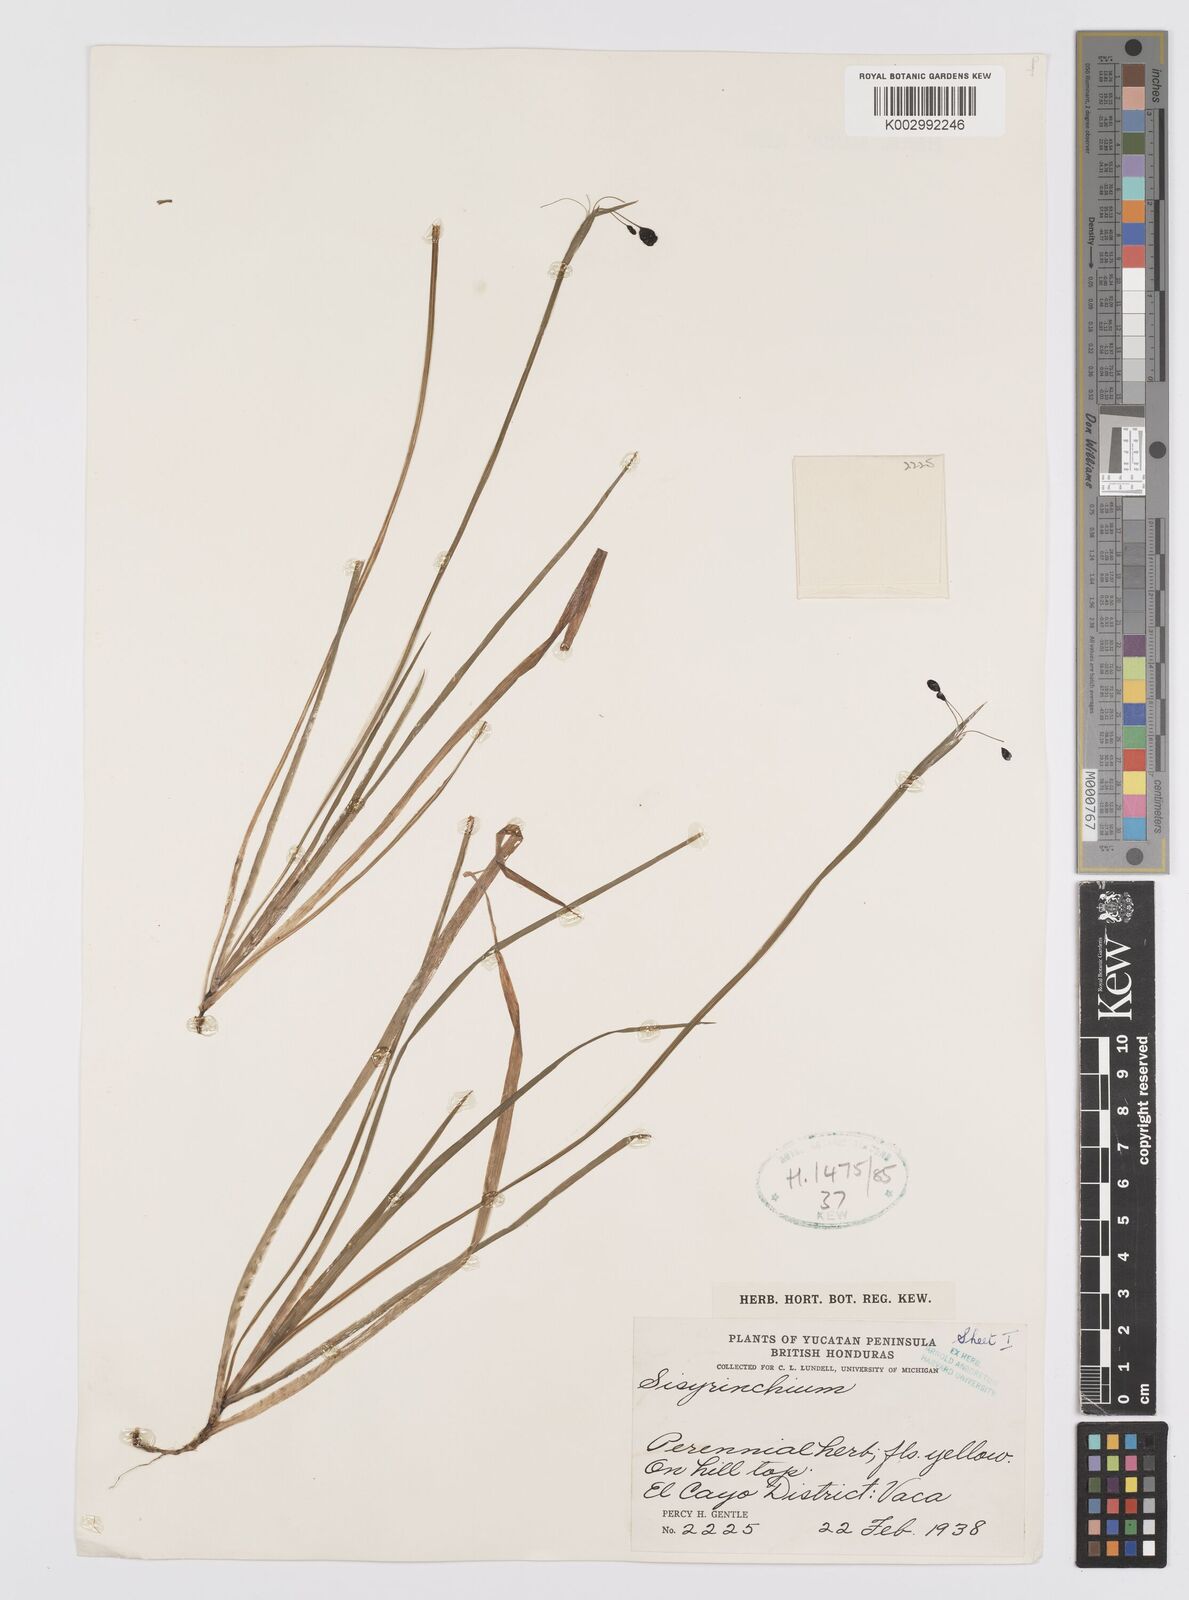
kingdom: Plantae
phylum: Tracheophyta
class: Liliopsida
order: Asparagales
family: Iridaceae
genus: Sisyrinchium
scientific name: Sisyrinchium
